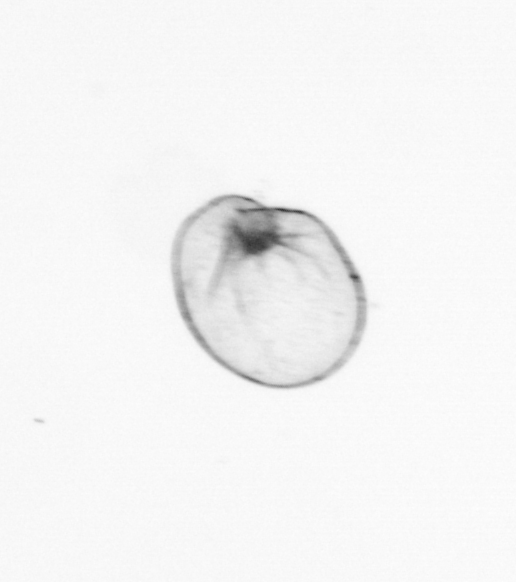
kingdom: Chromista
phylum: Myzozoa
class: Dinophyceae
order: Noctilucales
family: Noctilucaceae
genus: Noctiluca
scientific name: Noctiluca scintillans
